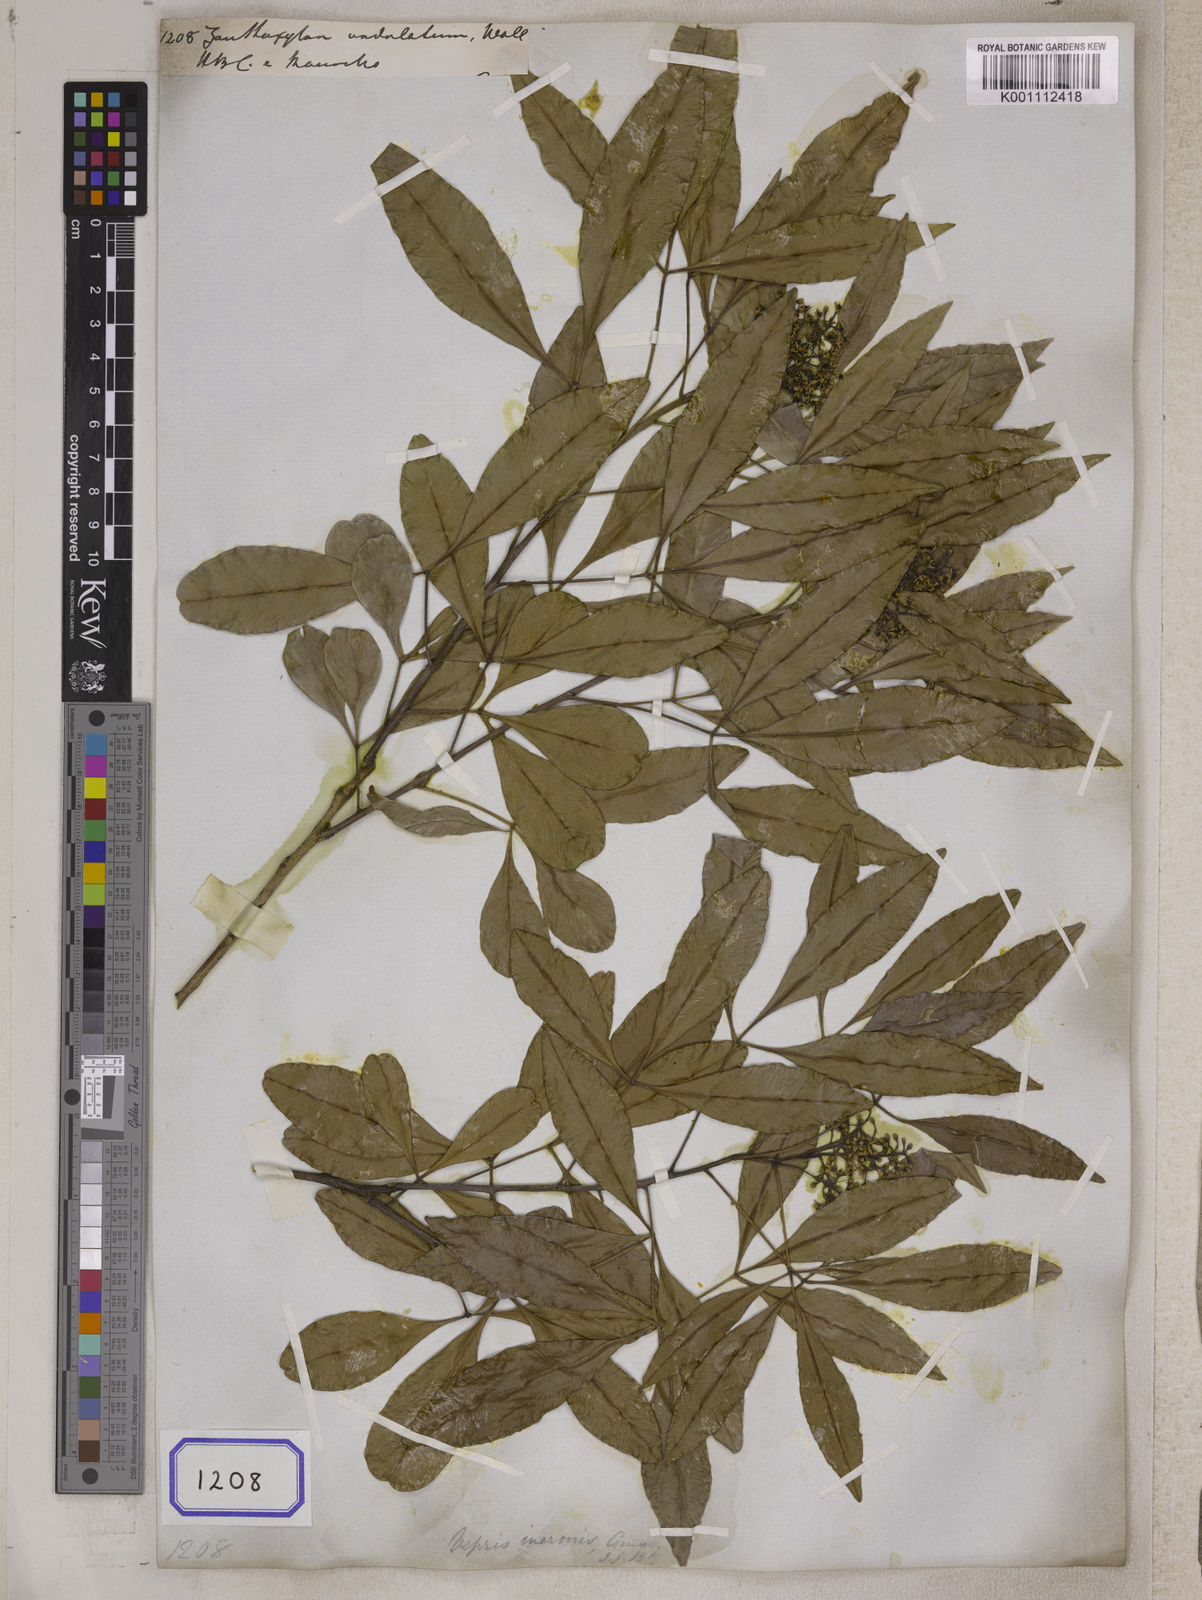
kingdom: Plantae
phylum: Tracheophyta
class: Magnoliopsida
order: Sapindales
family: Rutaceae
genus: Vepris
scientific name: Vepris lanceolata
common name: White ironwood
